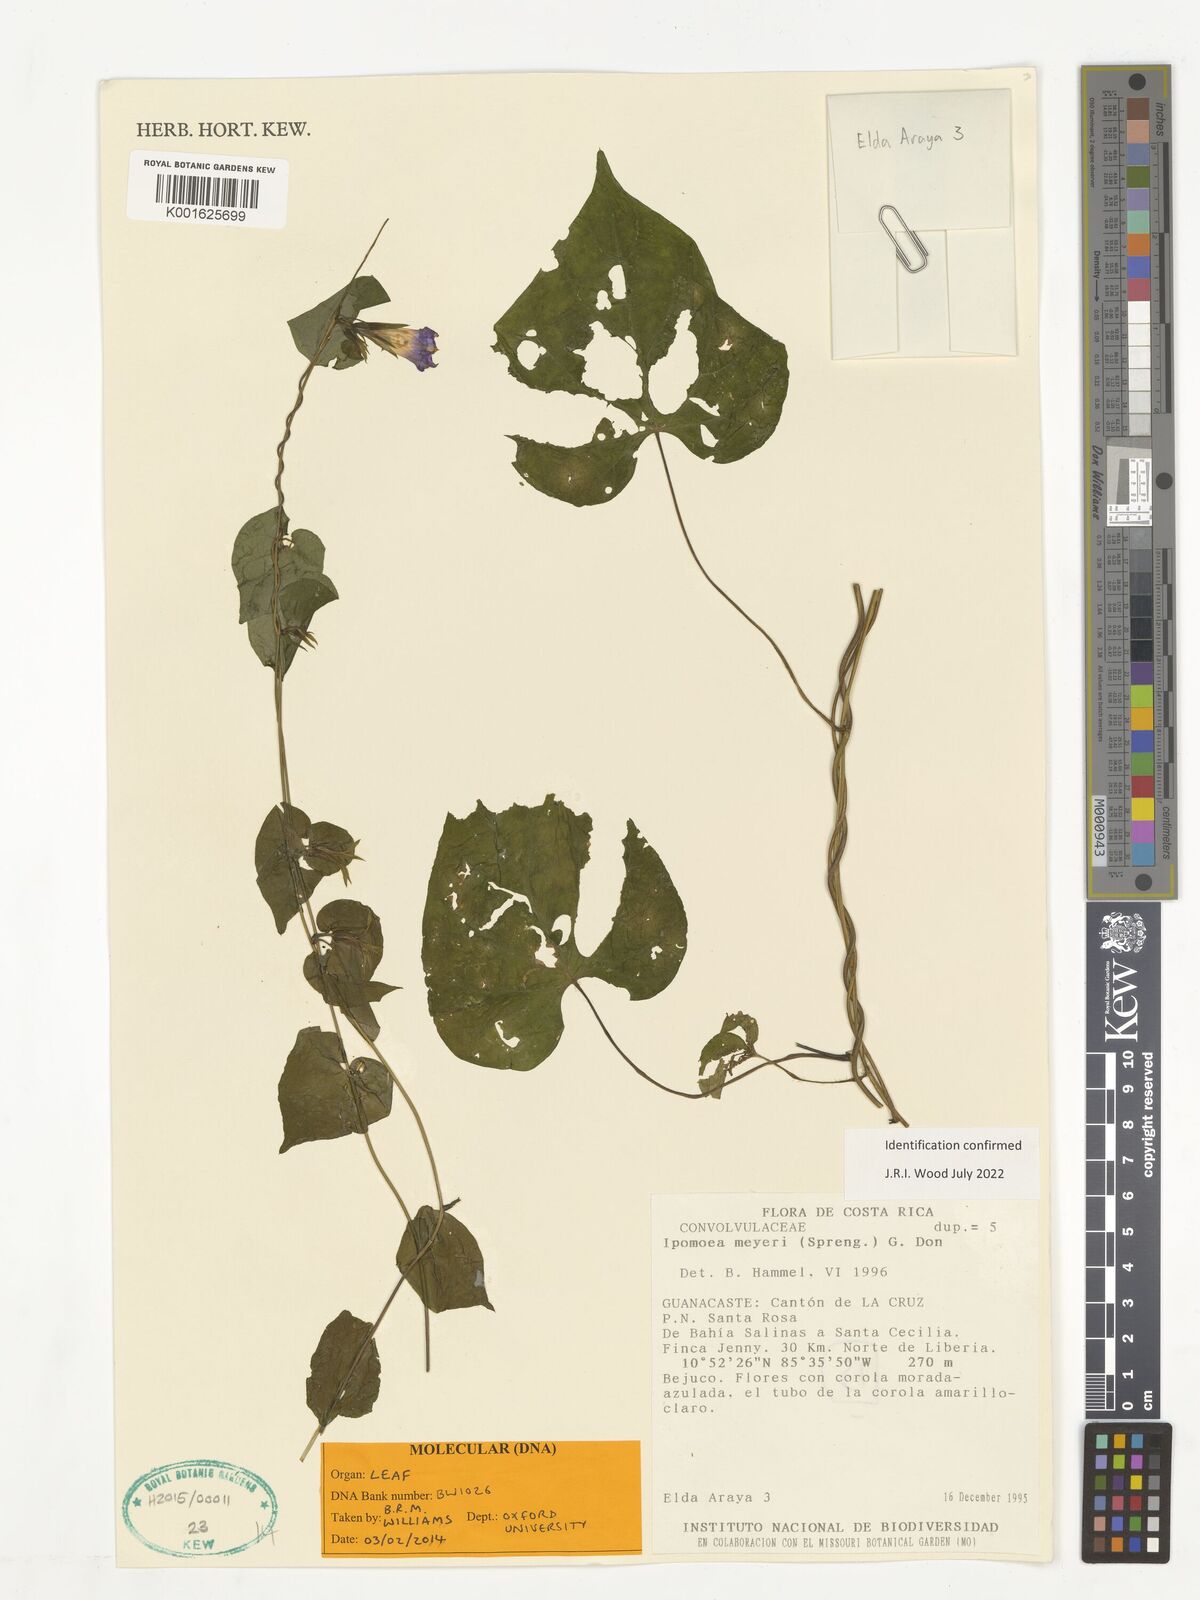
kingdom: Plantae
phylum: Tracheophyta
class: Magnoliopsida
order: Solanales
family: Convolvulaceae
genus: Ipomoea
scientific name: Ipomoea meyeri
